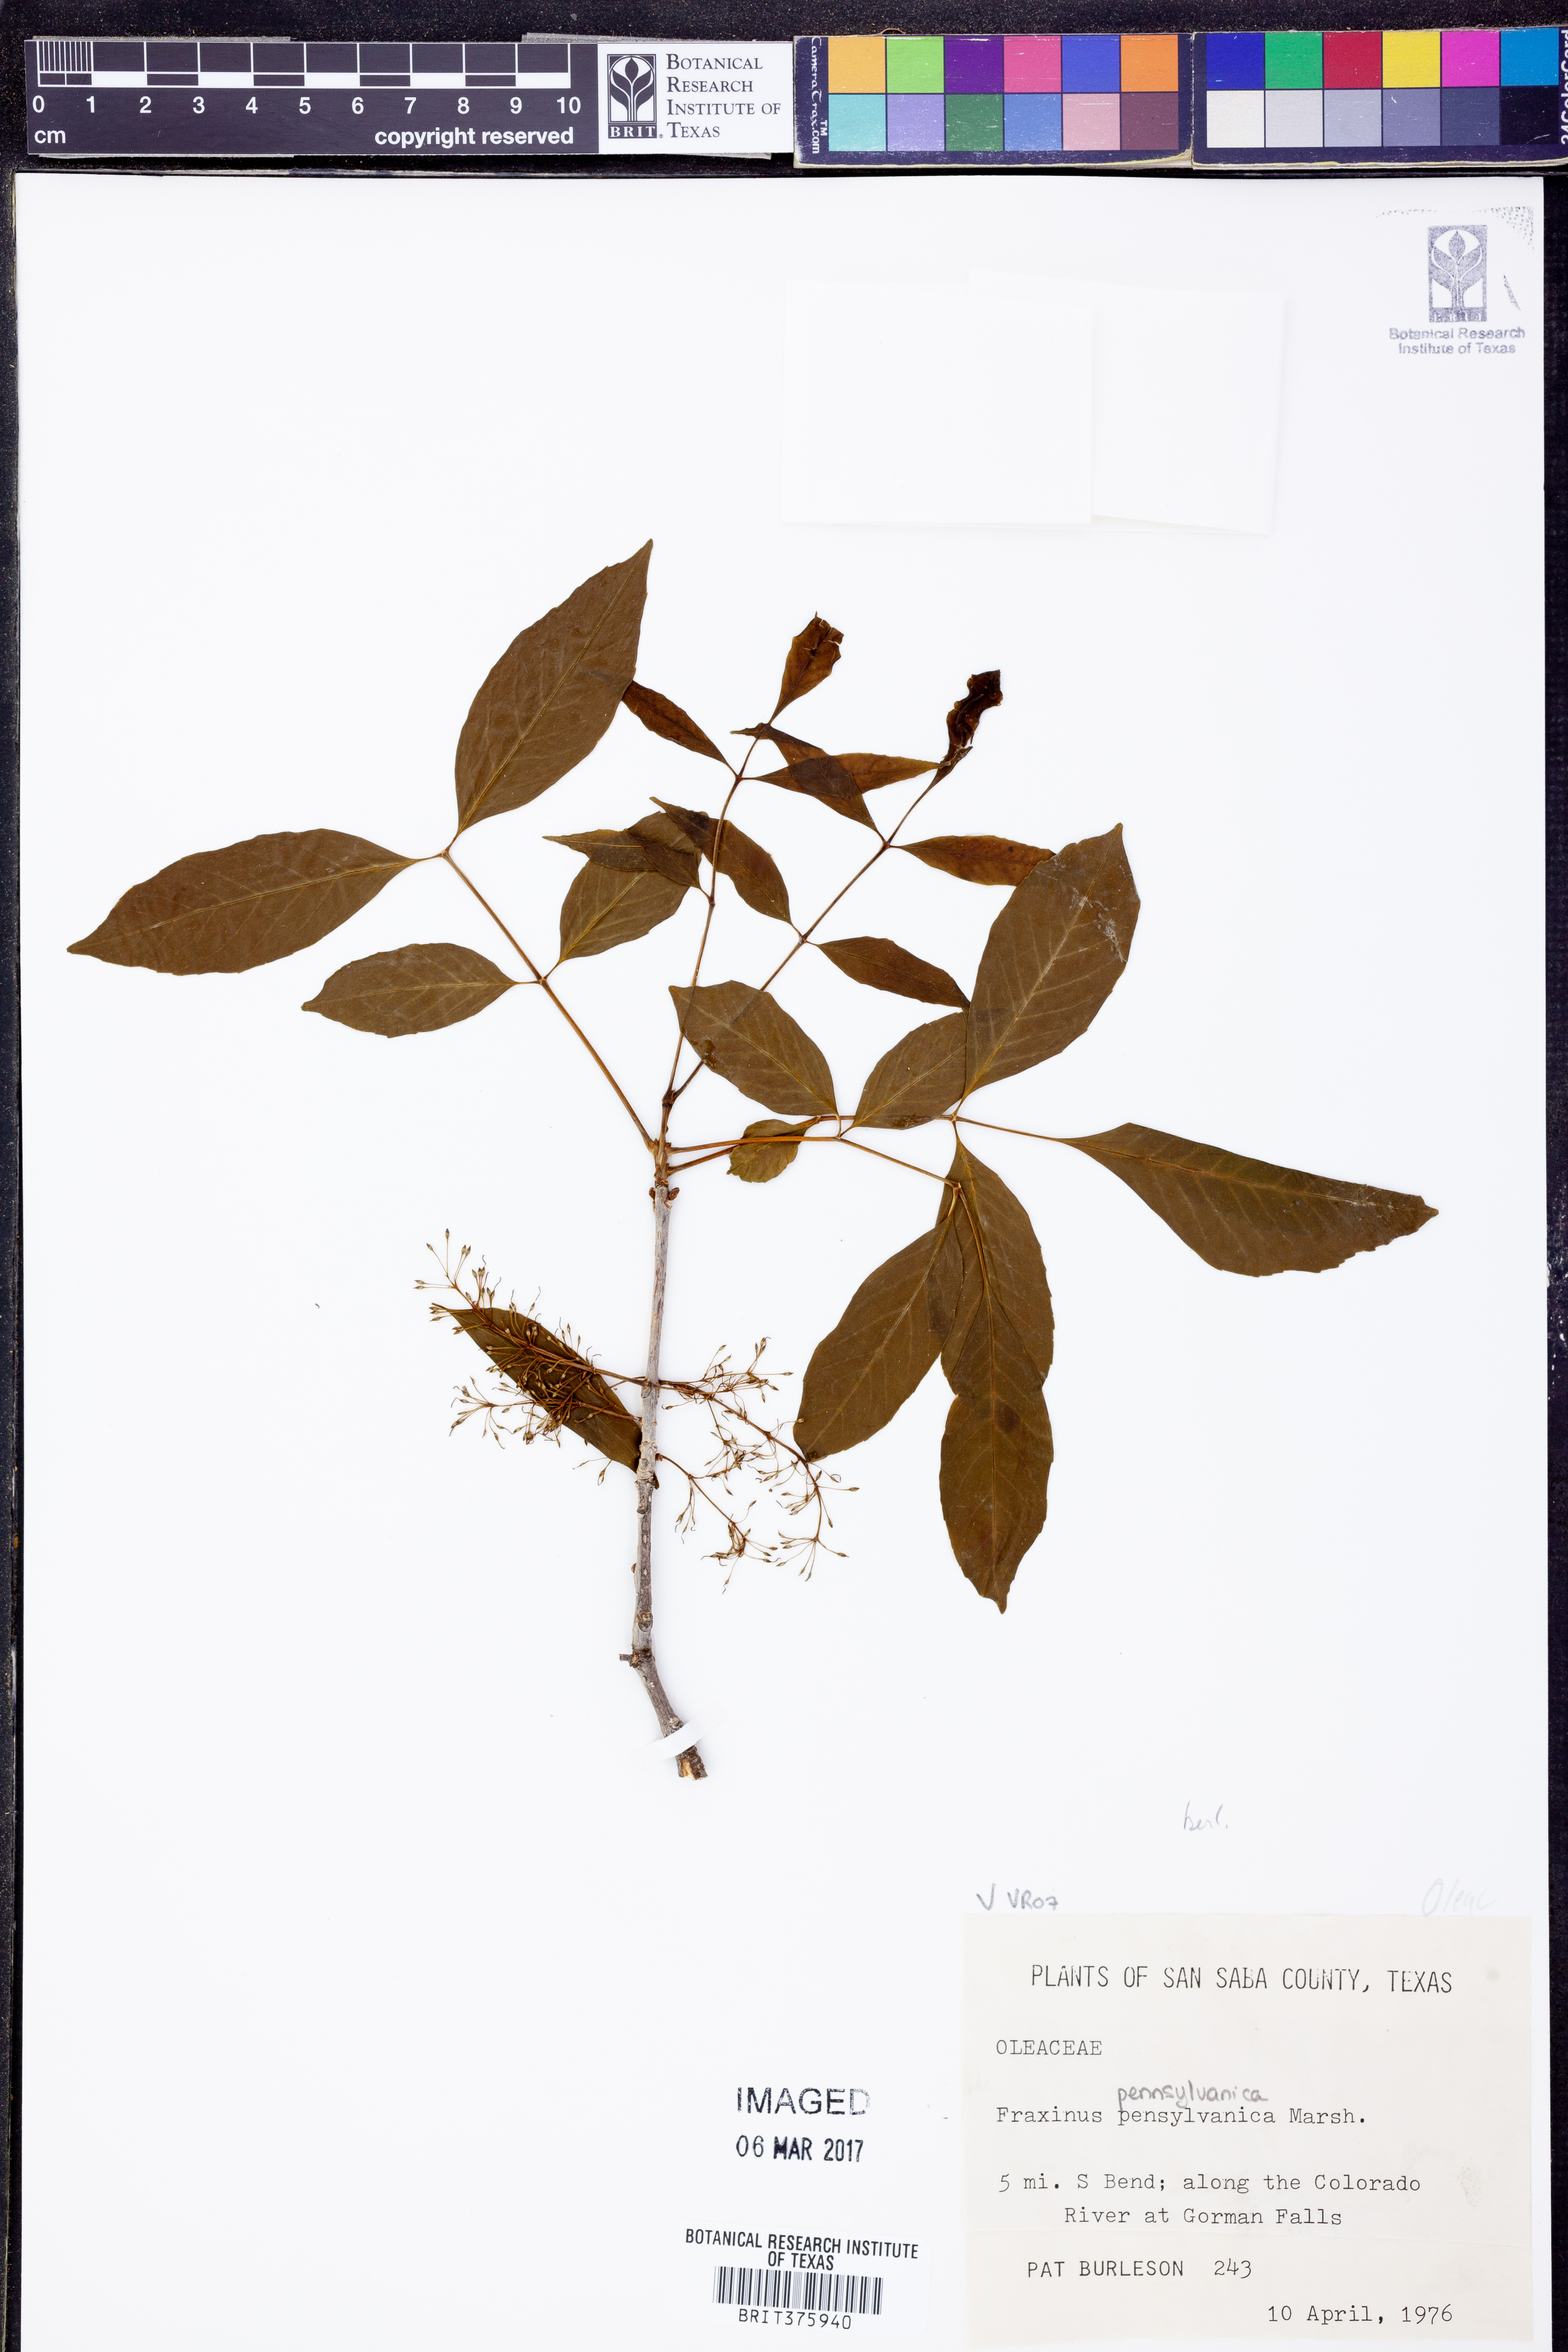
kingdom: Plantae
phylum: Tracheophyta
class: Magnoliopsida
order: Lamiales
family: Oleaceae
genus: Fraxinus
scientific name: Fraxinus pennsylvanica
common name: Green ash
